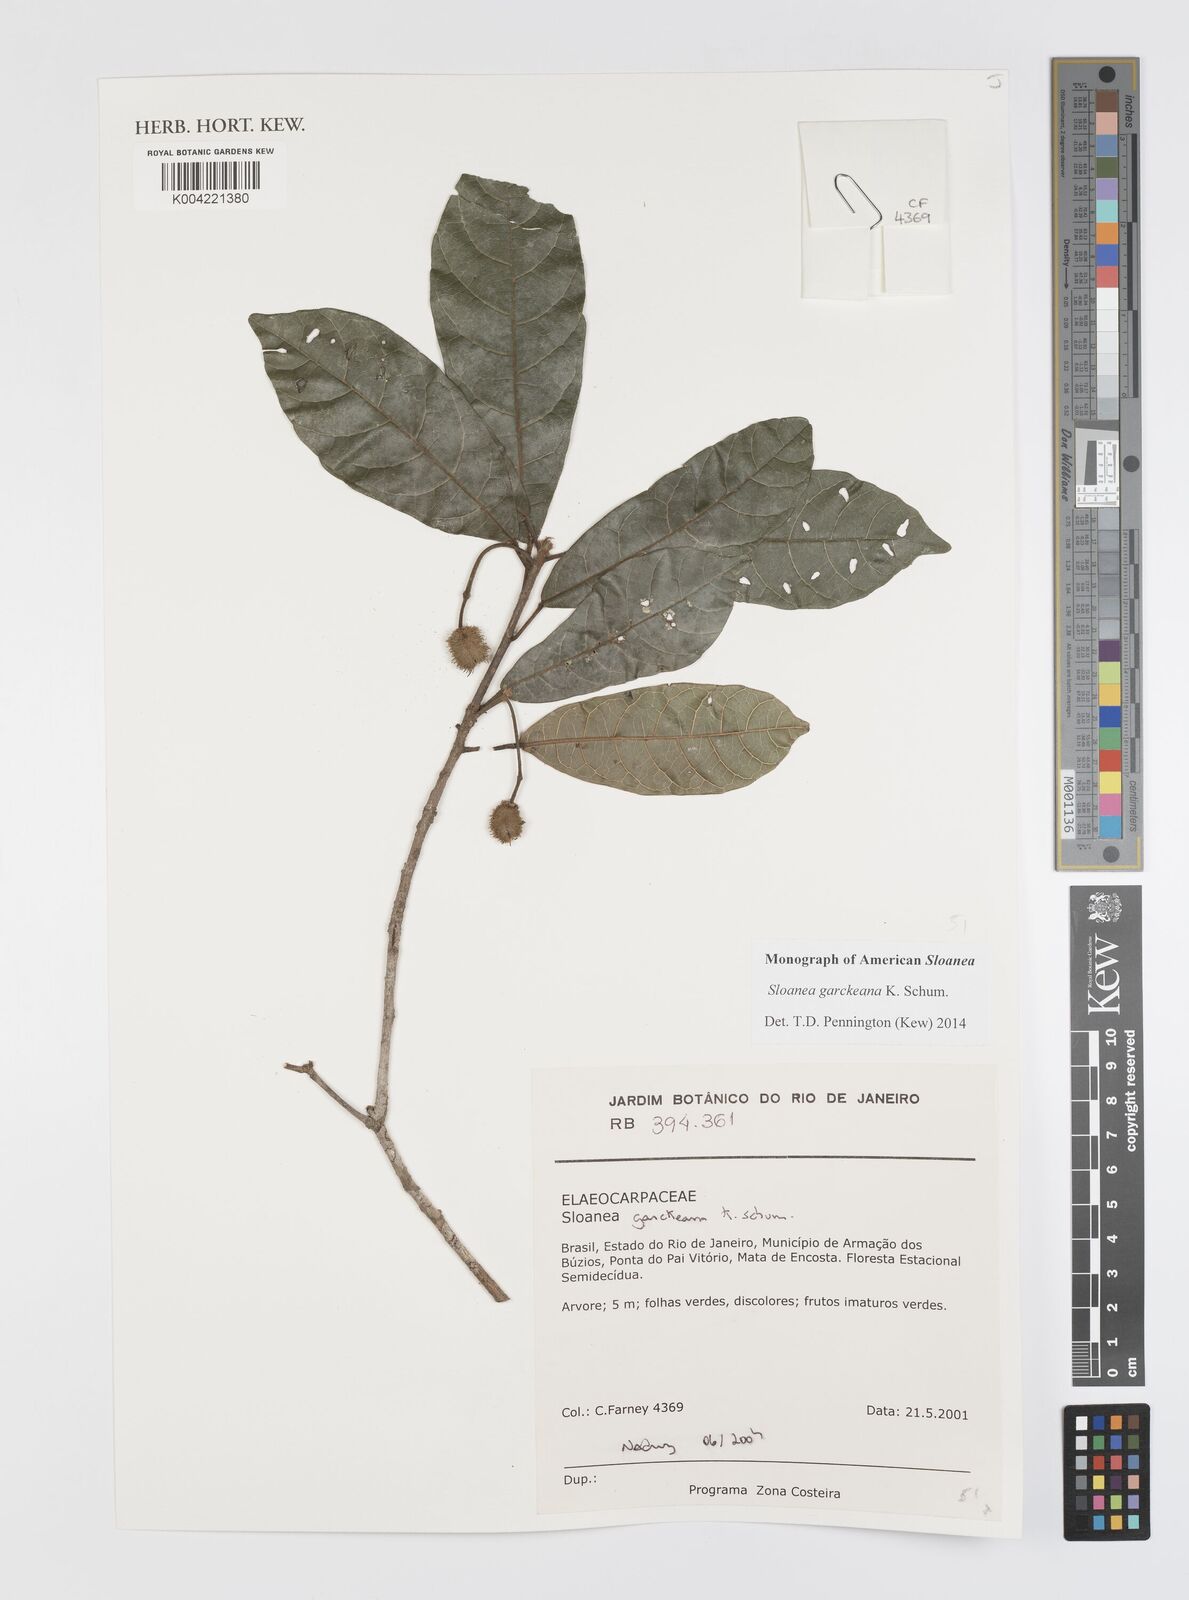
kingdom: Plantae
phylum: Tracheophyta
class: Magnoliopsida
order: Oxalidales
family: Elaeocarpaceae
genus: Sloanea
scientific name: Sloanea garckeana
